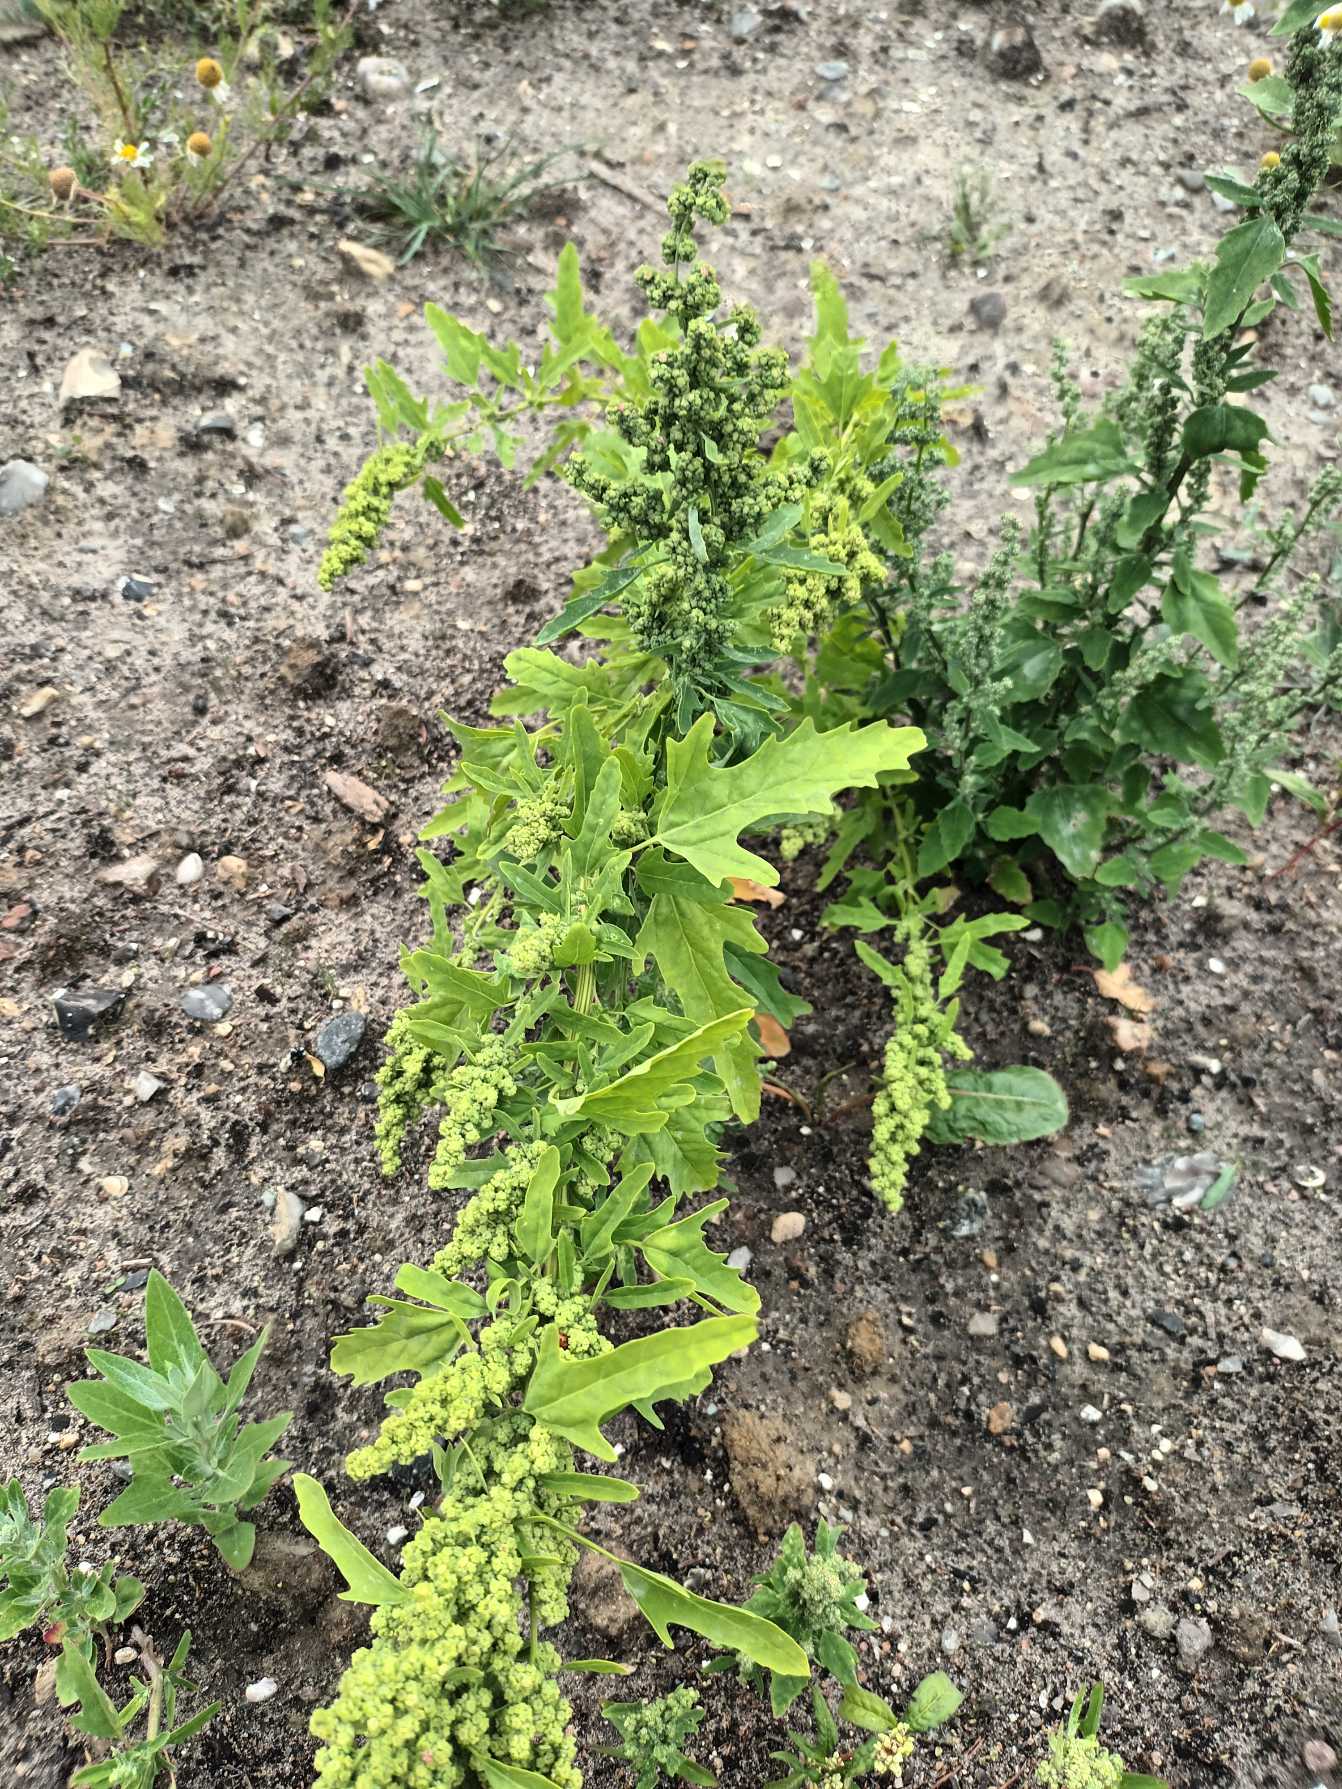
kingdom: Plantae
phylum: Tracheophyta
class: Magnoliopsida
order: Caryophyllales
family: Amaranthaceae
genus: Chenopodium
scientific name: Chenopodium ficifolium
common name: Figenbladet gåsefod
